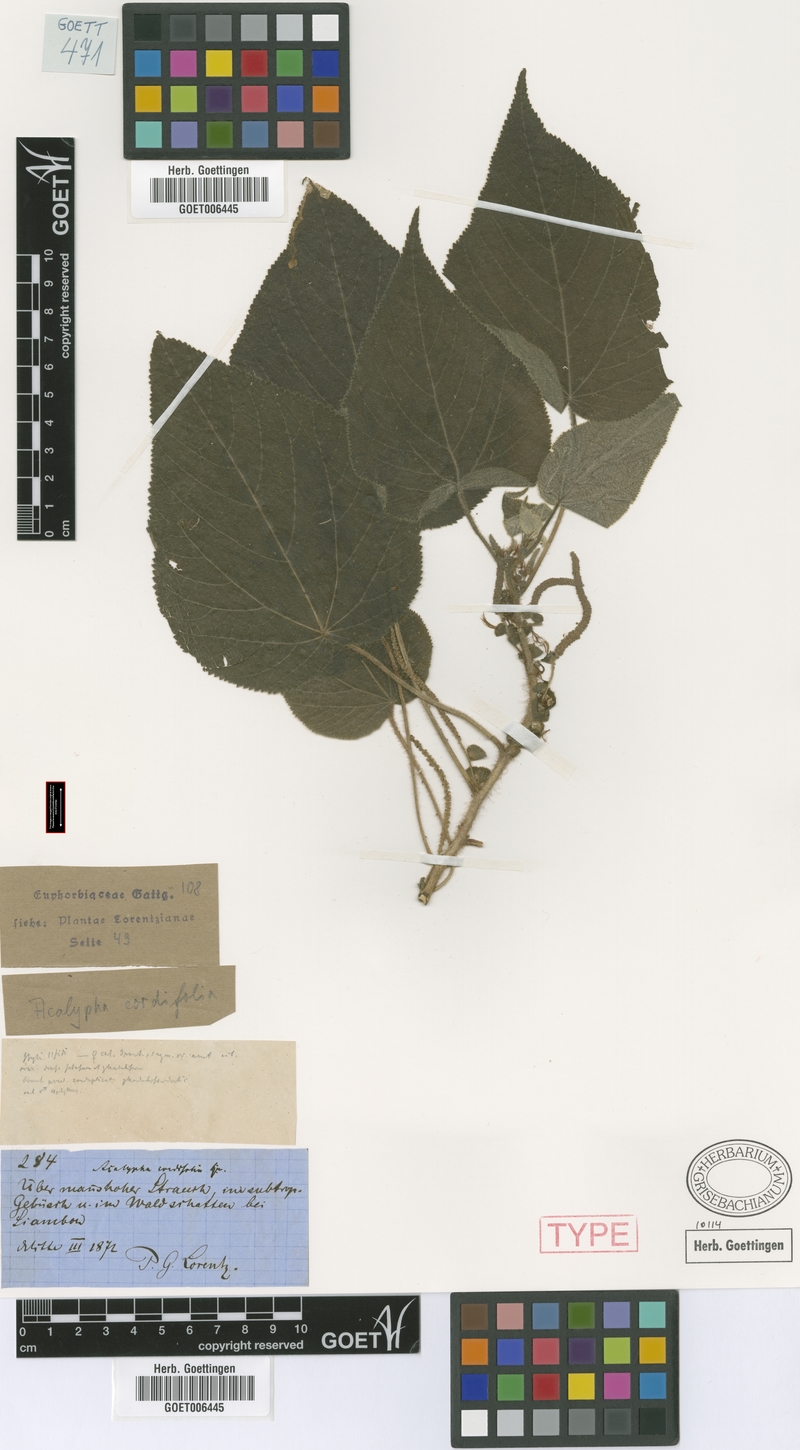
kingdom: Plantae
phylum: Tracheophyta
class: Magnoliopsida
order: Malpighiales
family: Euphorbiaceae
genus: Acalypha
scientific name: Acalypha plicata
